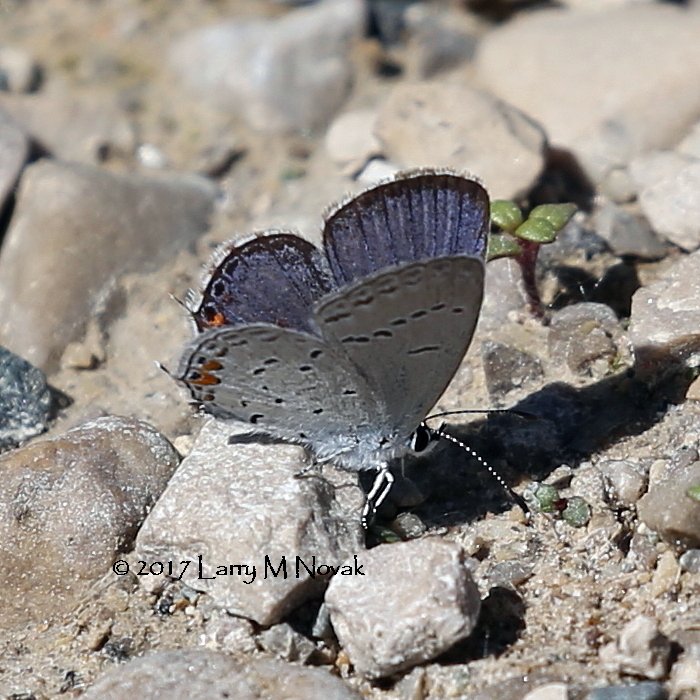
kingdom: Animalia
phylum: Arthropoda
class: Insecta
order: Lepidoptera
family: Lycaenidae
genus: Elkalyce
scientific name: Elkalyce comyntas
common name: Eastern Tailed-Blue
